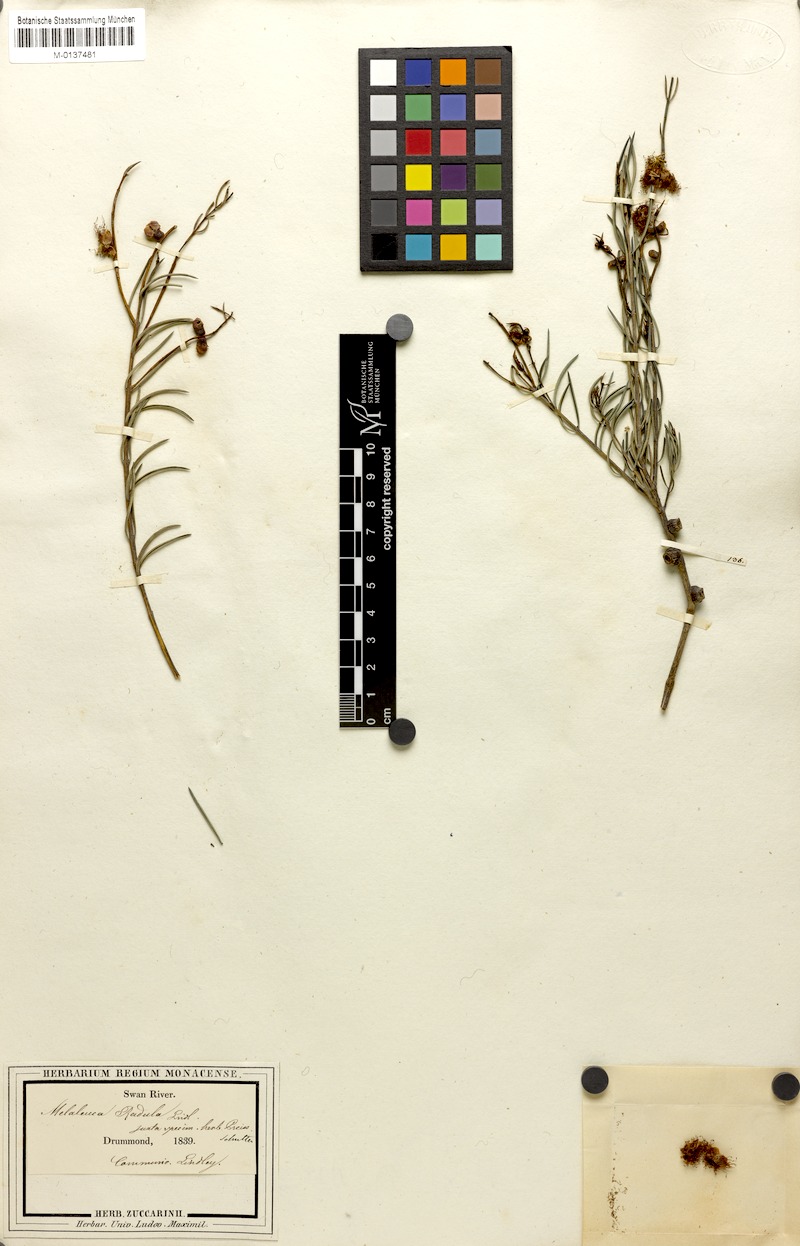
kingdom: Plantae
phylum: Tracheophyta
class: Magnoliopsida
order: Myrtales
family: Myrtaceae
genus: Melaleuca
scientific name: Melaleuca radula
